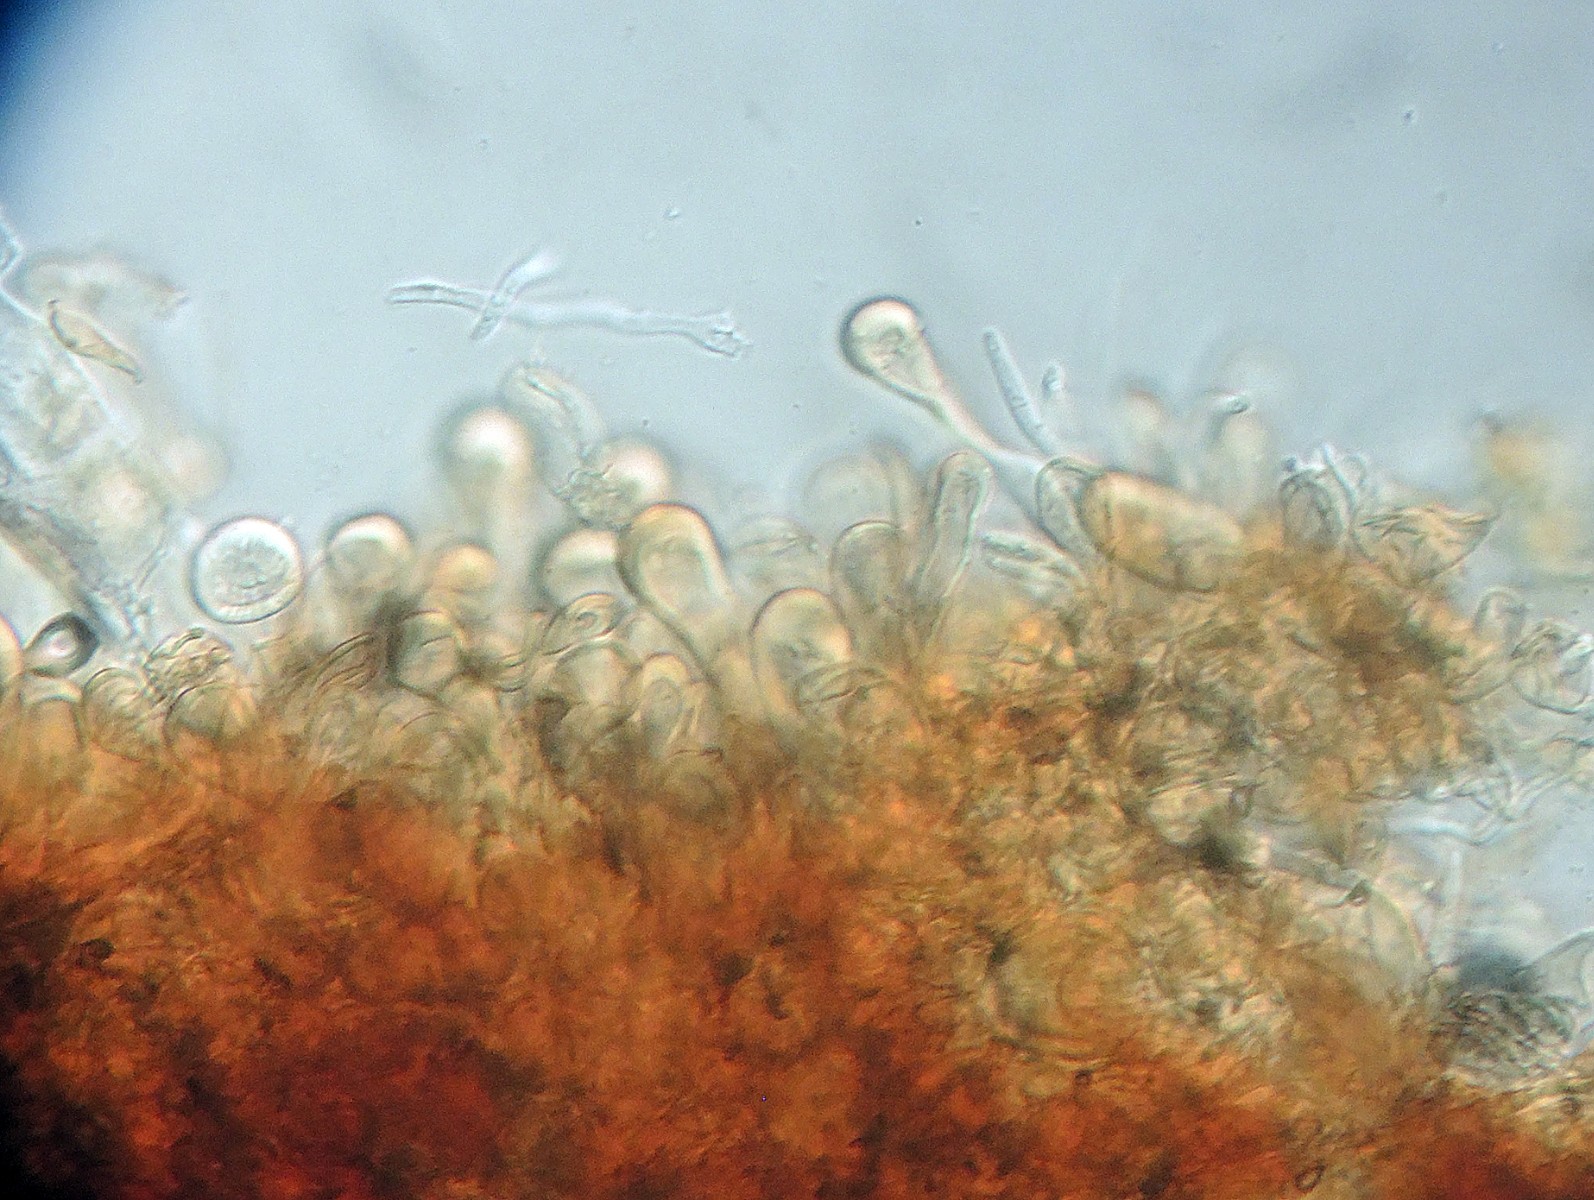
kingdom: Fungi
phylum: Basidiomycota
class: Pucciniomycetes
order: Pucciniales
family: Pucciniaceae
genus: Puccinia
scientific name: Puccinia brachypodii
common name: Rust fungus
